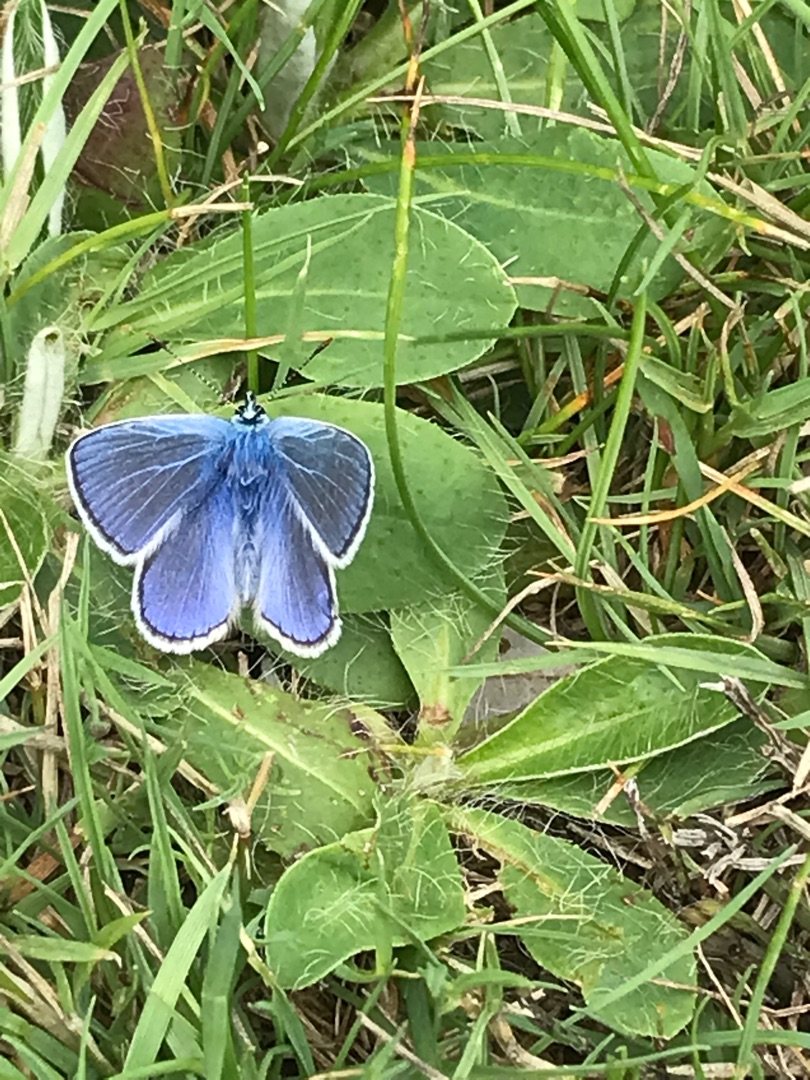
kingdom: Animalia
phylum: Arthropoda
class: Insecta
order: Lepidoptera
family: Lycaenidae
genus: Polyommatus
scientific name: Polyommatus icarus
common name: Almindelig blåfugl
